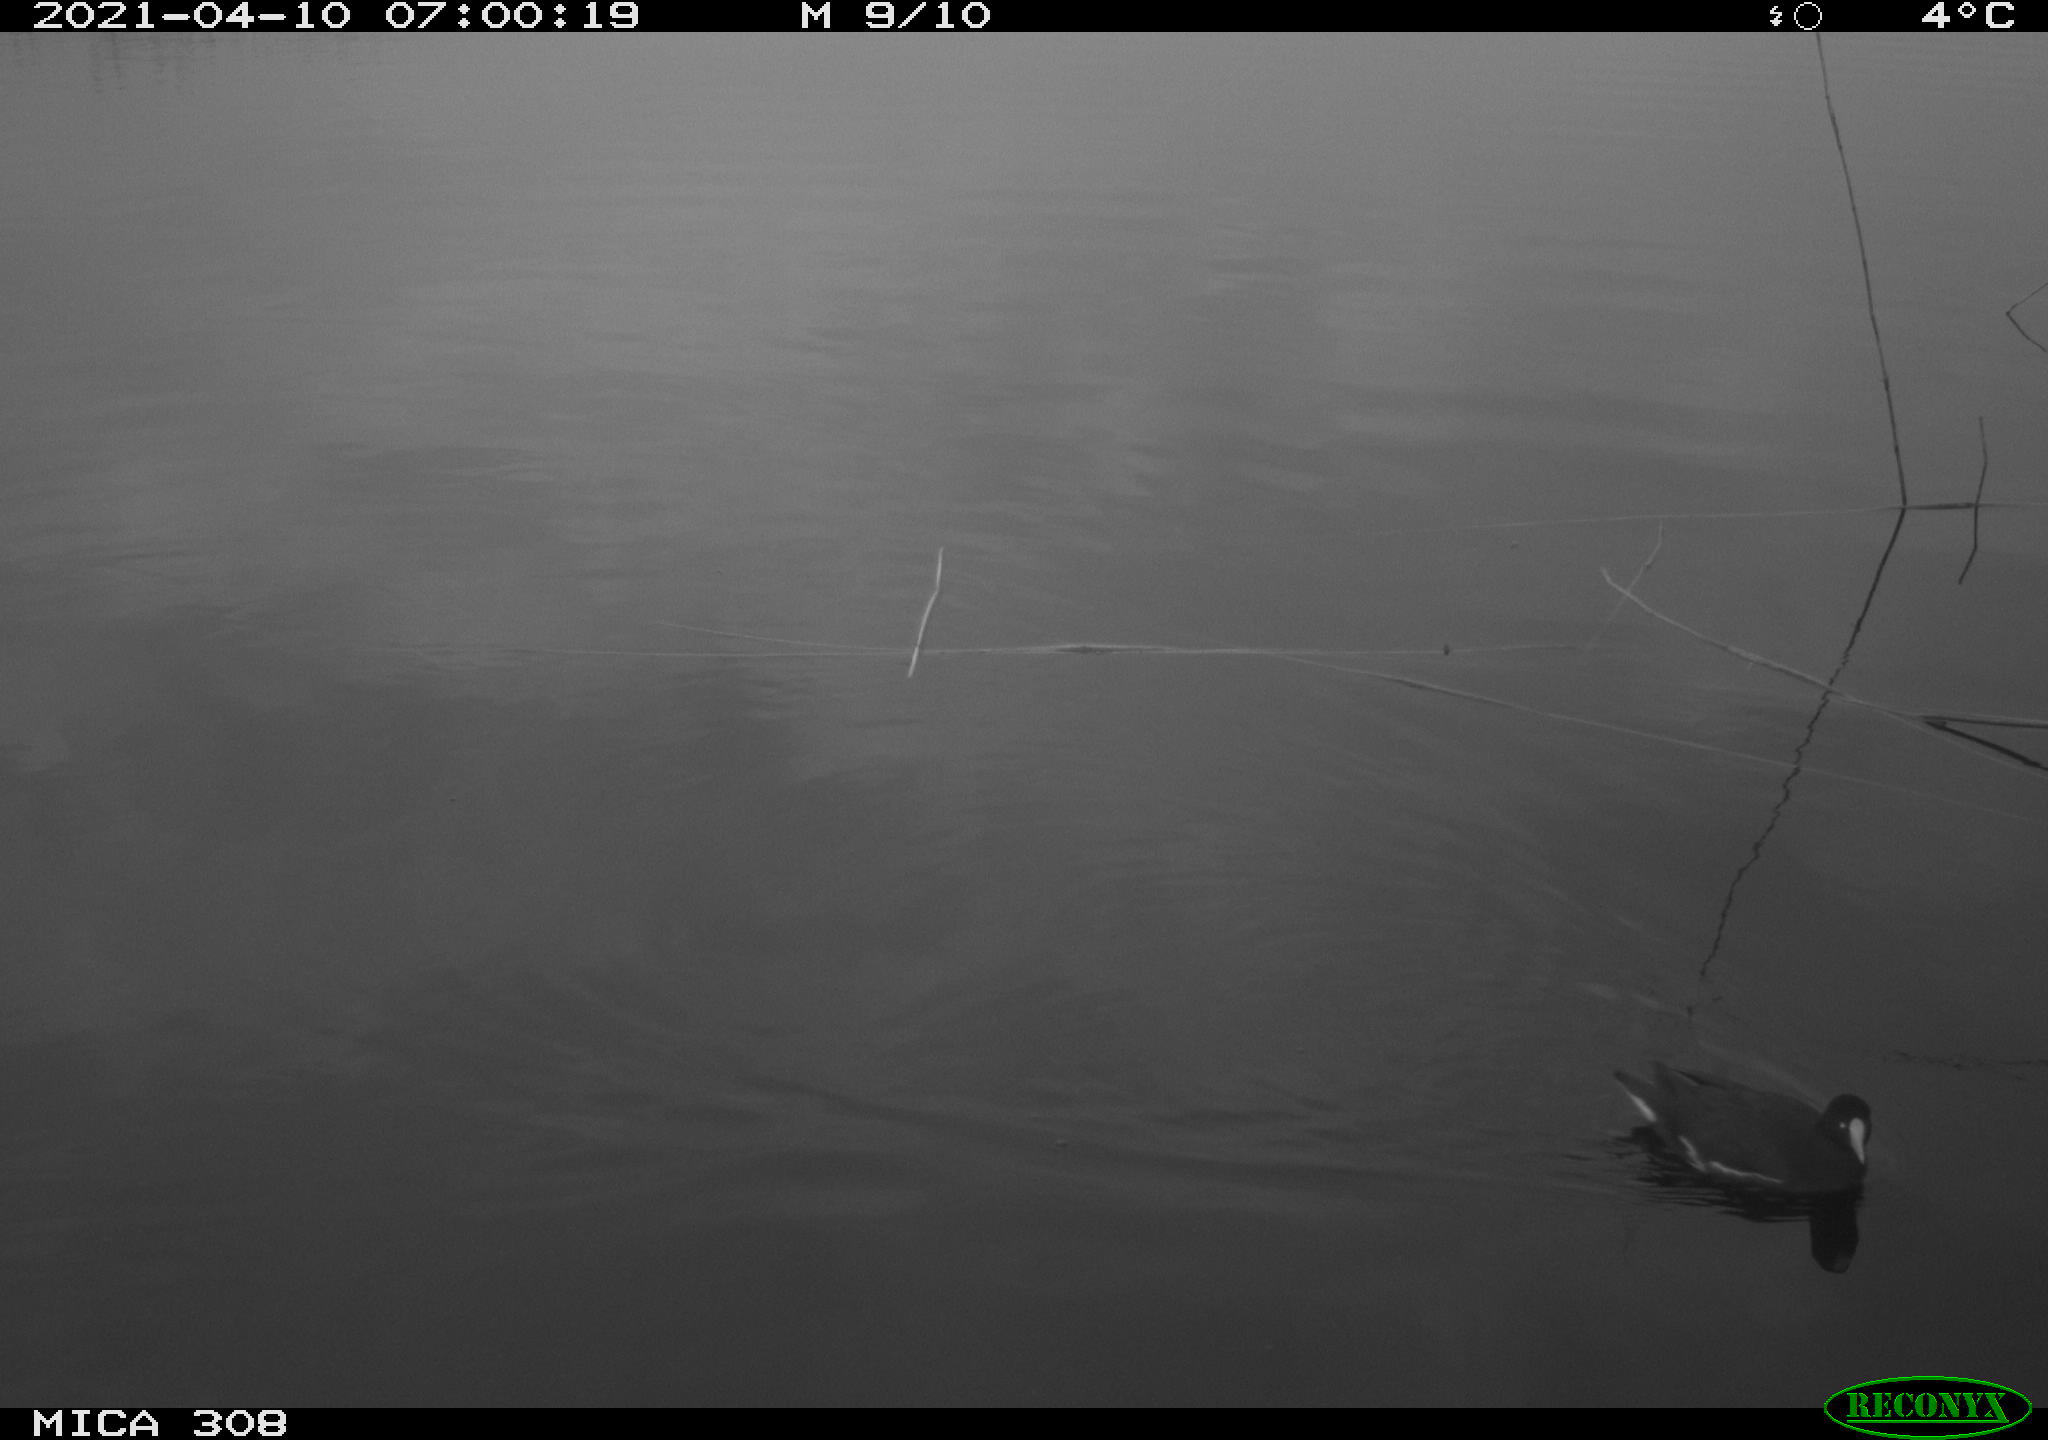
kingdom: Animalia
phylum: Chordata
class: Aves
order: Gruiformes
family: Rallidae
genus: Gallinula
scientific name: Gallinula chloropus
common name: Common moorhen
